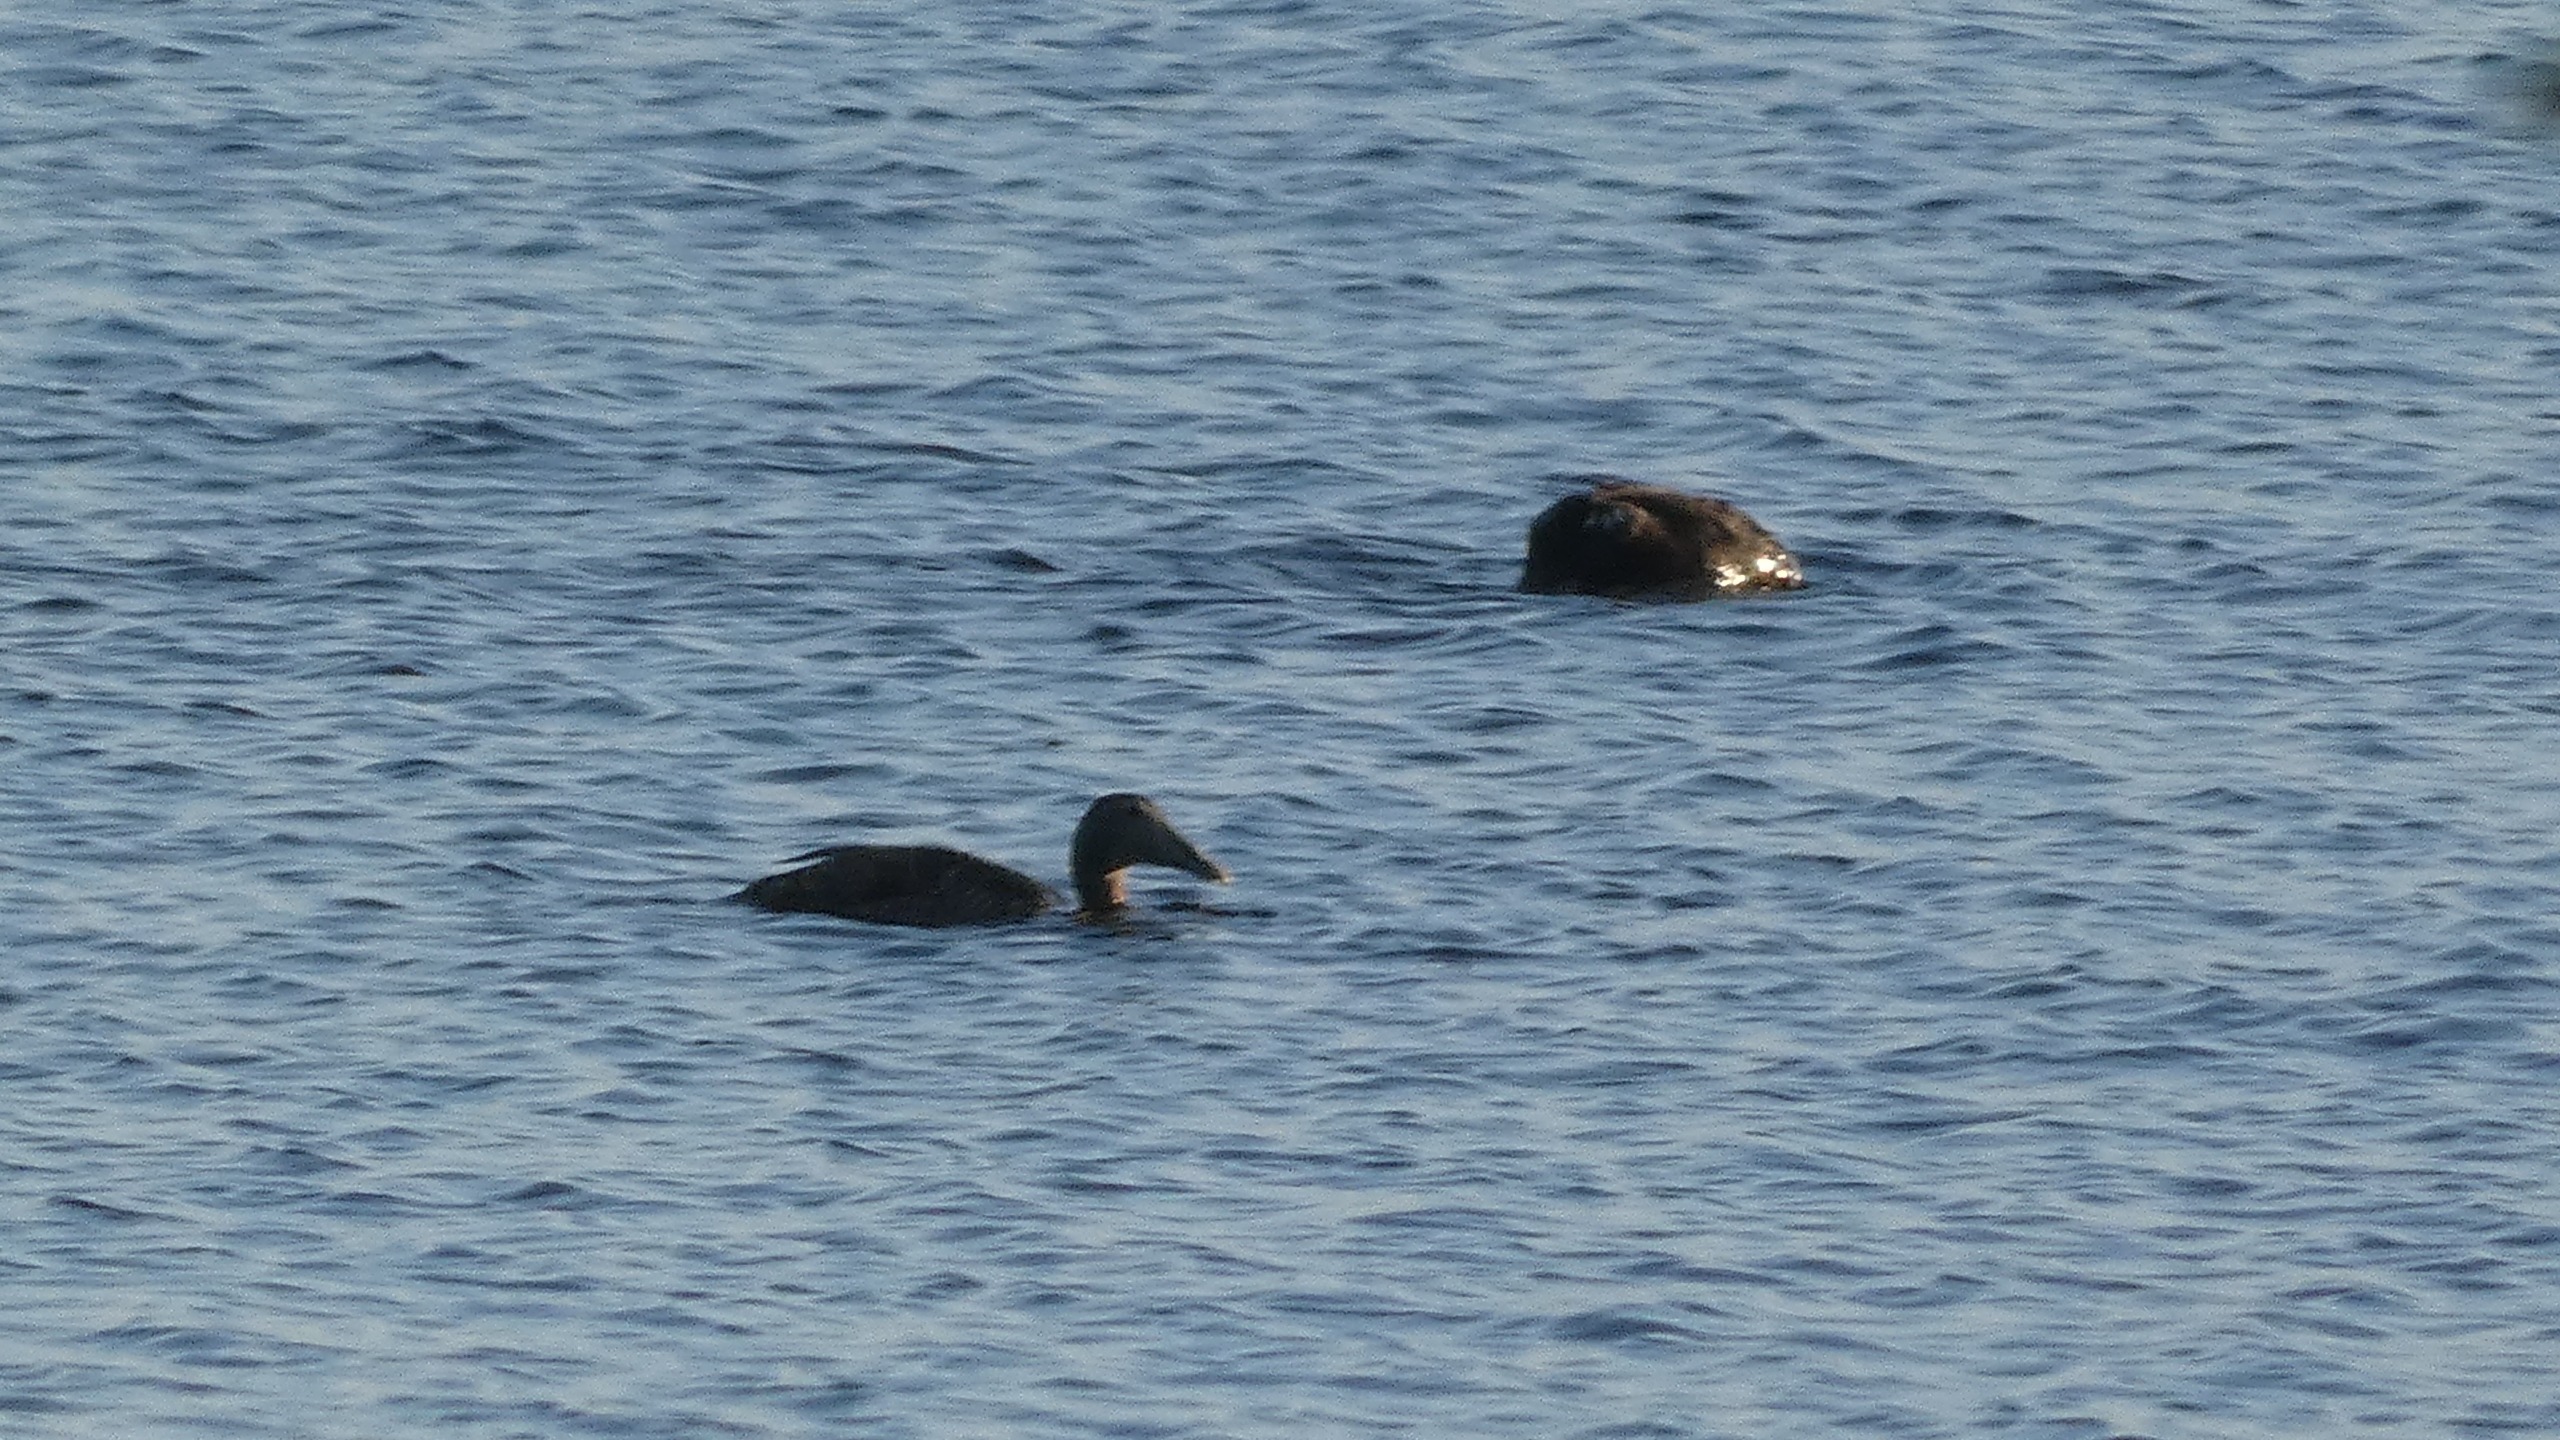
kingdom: Animalia
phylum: Chordata
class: Aves
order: Anseriformes
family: Anatidae
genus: Somateria
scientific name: Somateria mollissima
